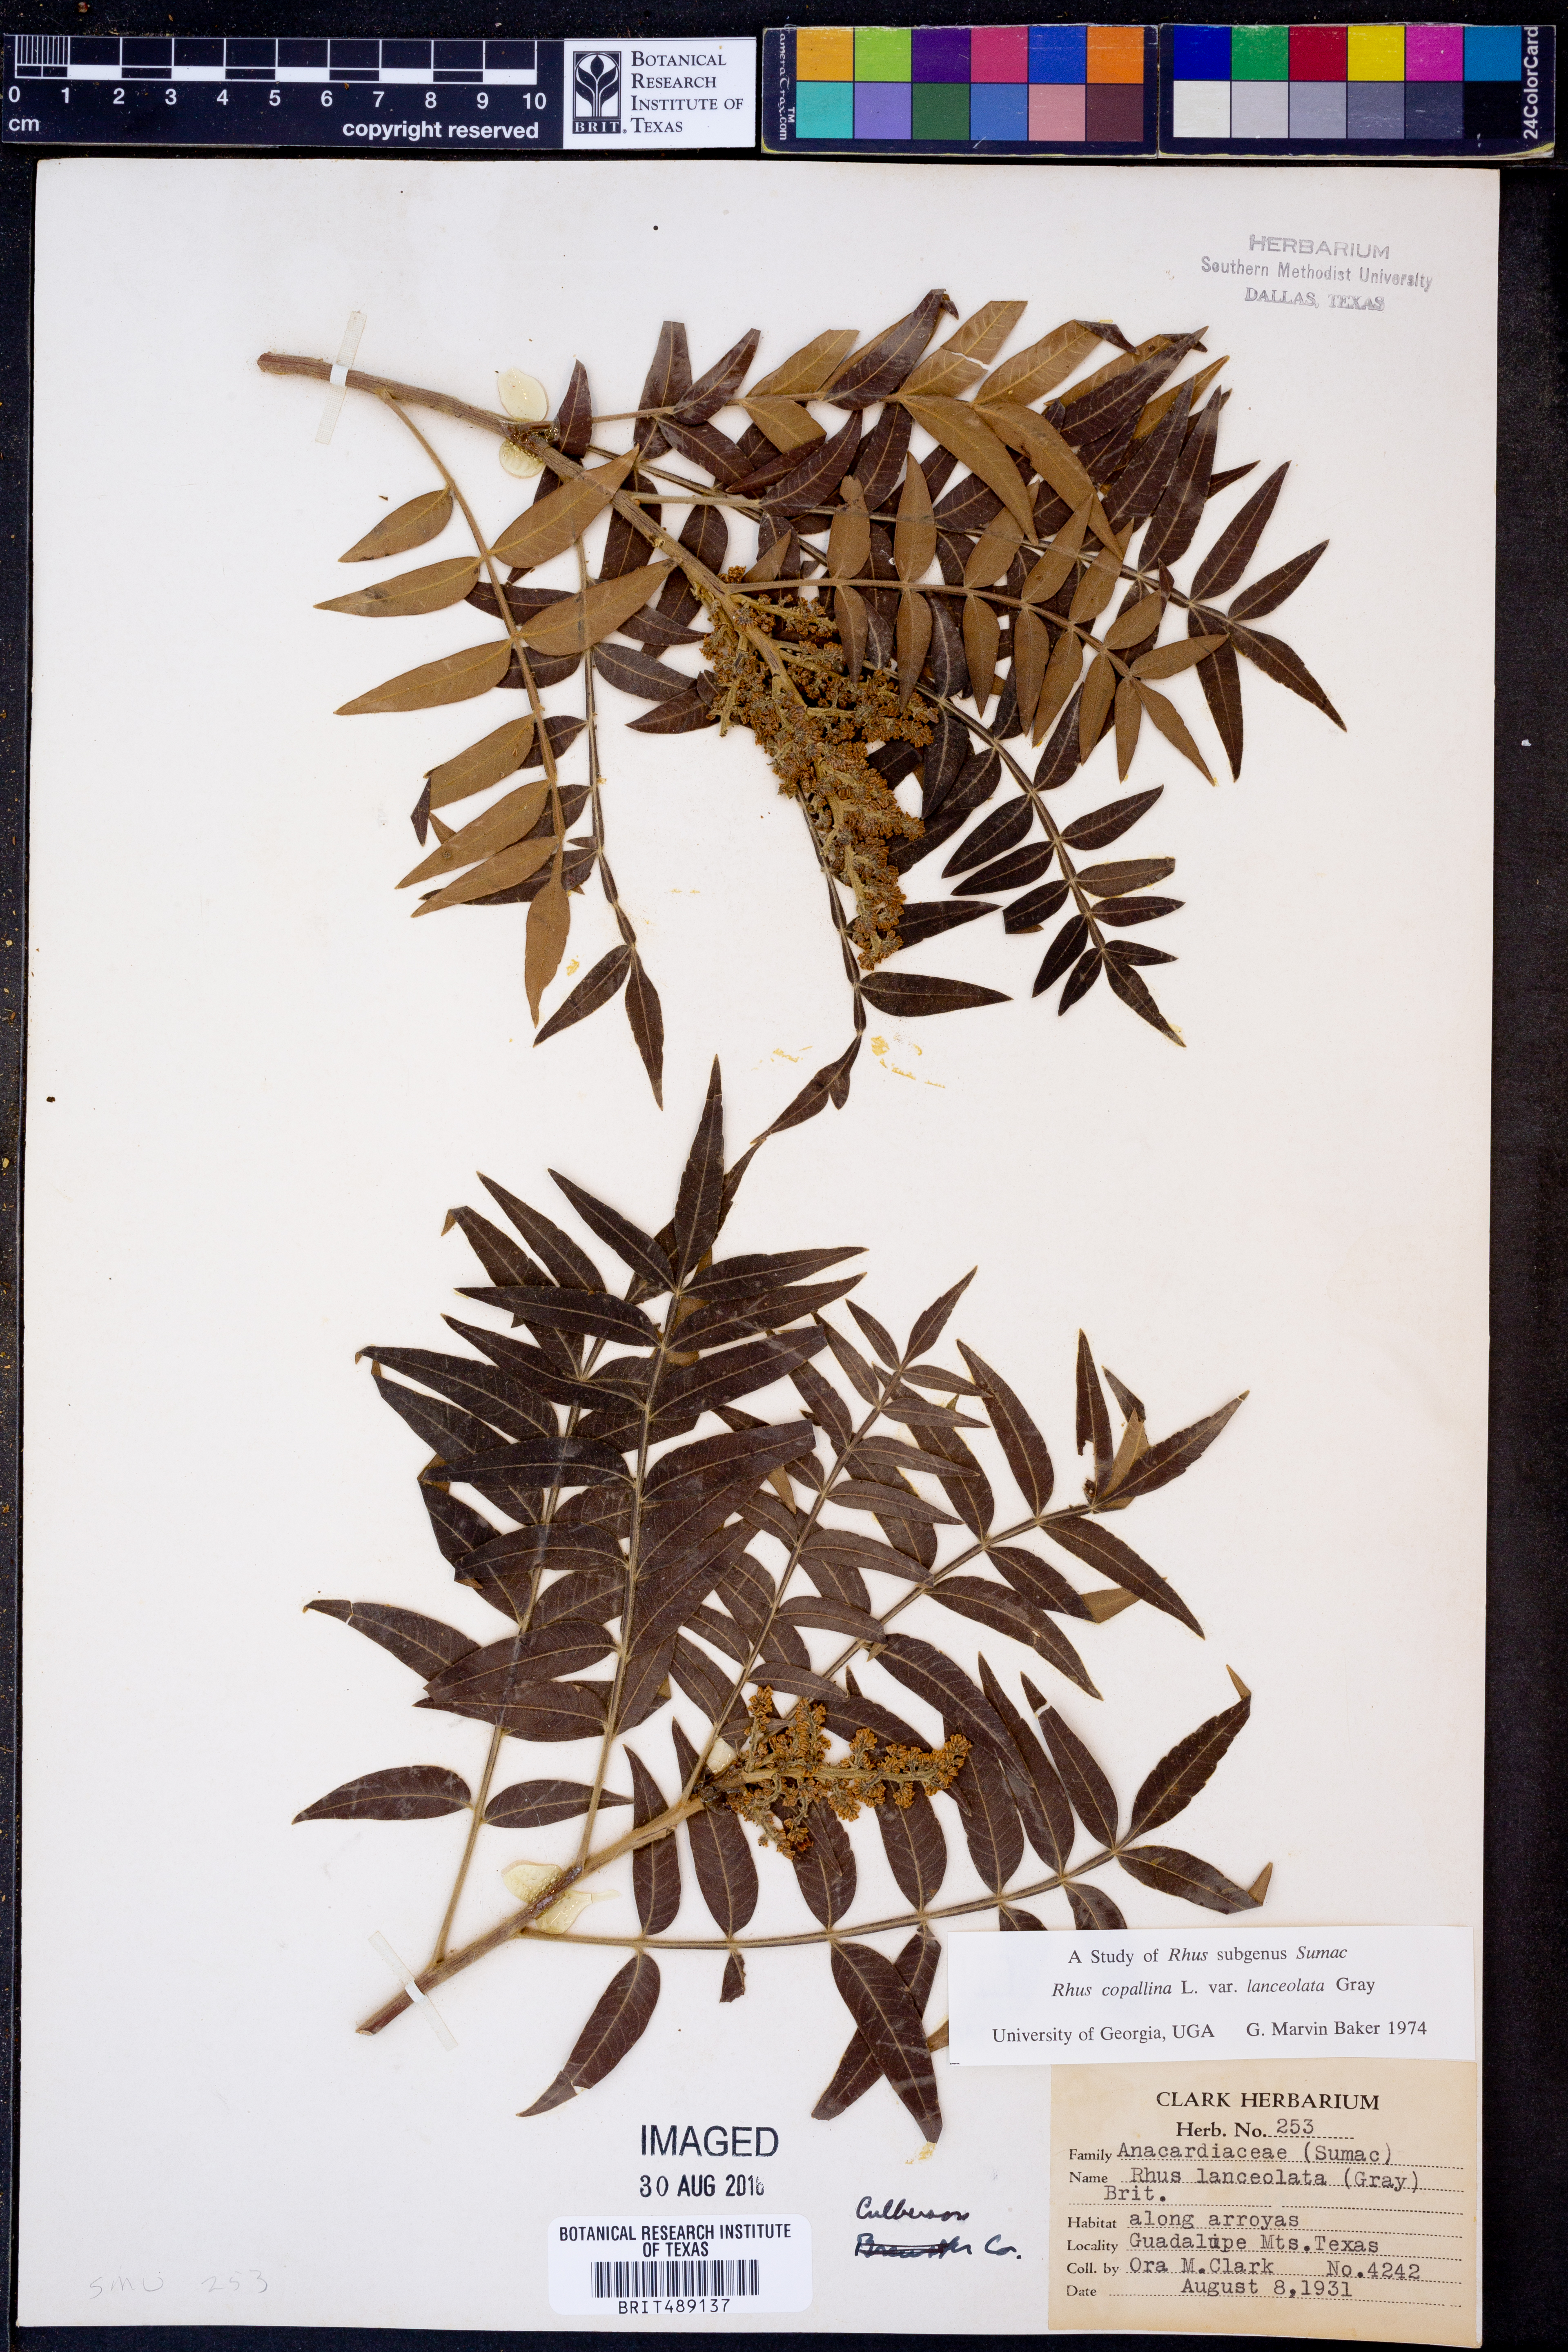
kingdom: Plantae
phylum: Tracheophyta
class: Magnoliopsida
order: Sapindales
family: Anacardiaceae
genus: Rhus
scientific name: Rhus lanceolata
